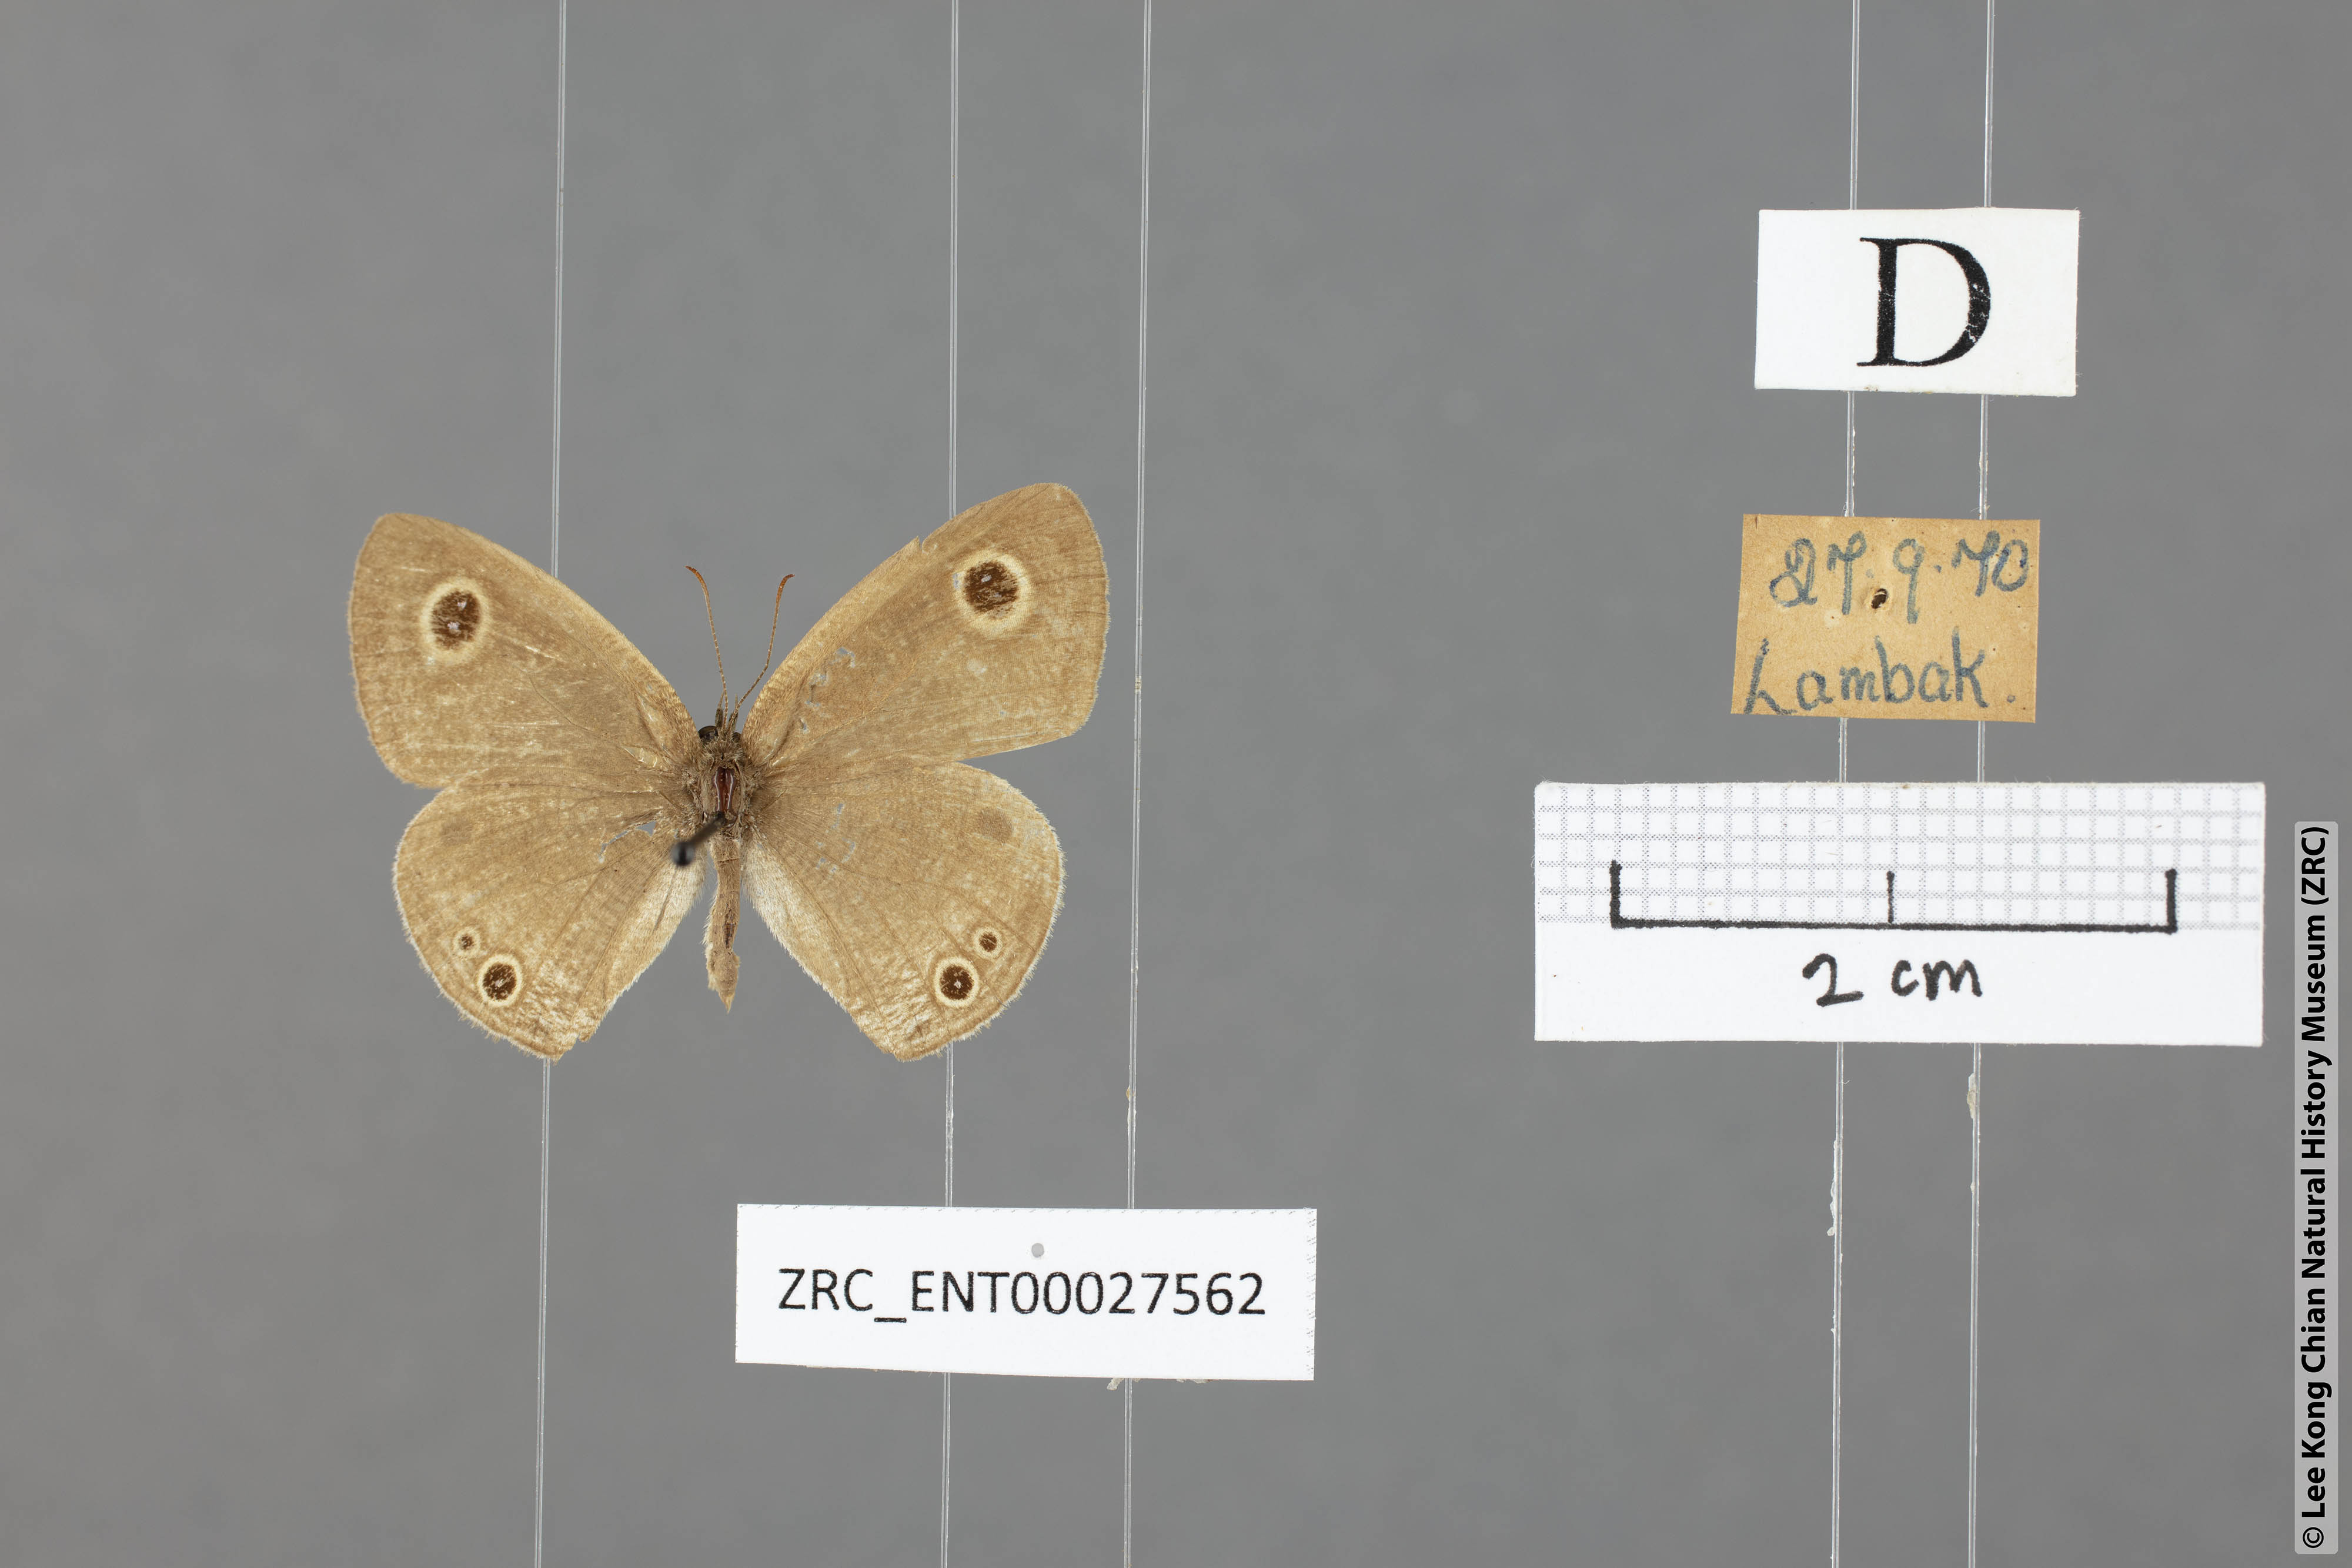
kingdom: Animalia
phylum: Arthropoda
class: Insecta
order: Lepidoptera
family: Nymphalidae
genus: Ypthima
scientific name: Ypthima huebneri
